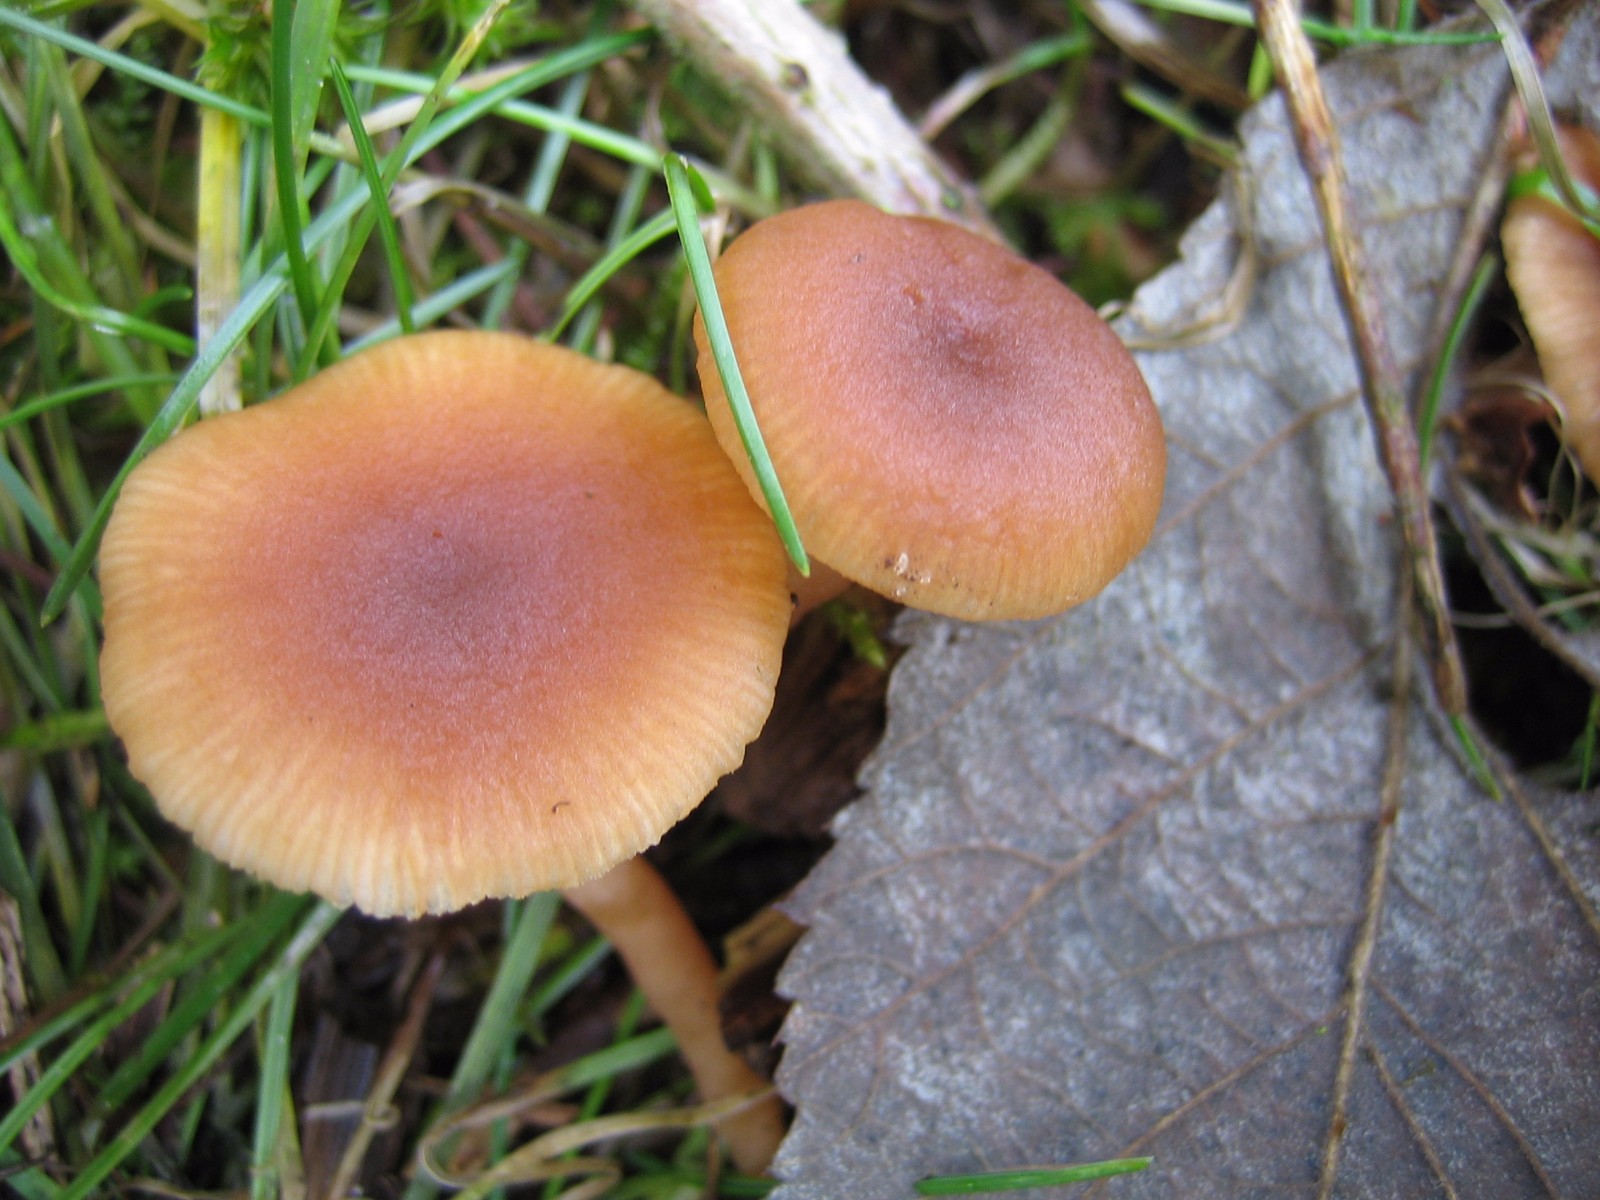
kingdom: Fungi
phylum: Basidiomycota
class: Agaricomycetes
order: Agaricales
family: Tubariaceae
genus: Tubaria
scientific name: Tubaria furfuracea
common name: kliddet fnughat
